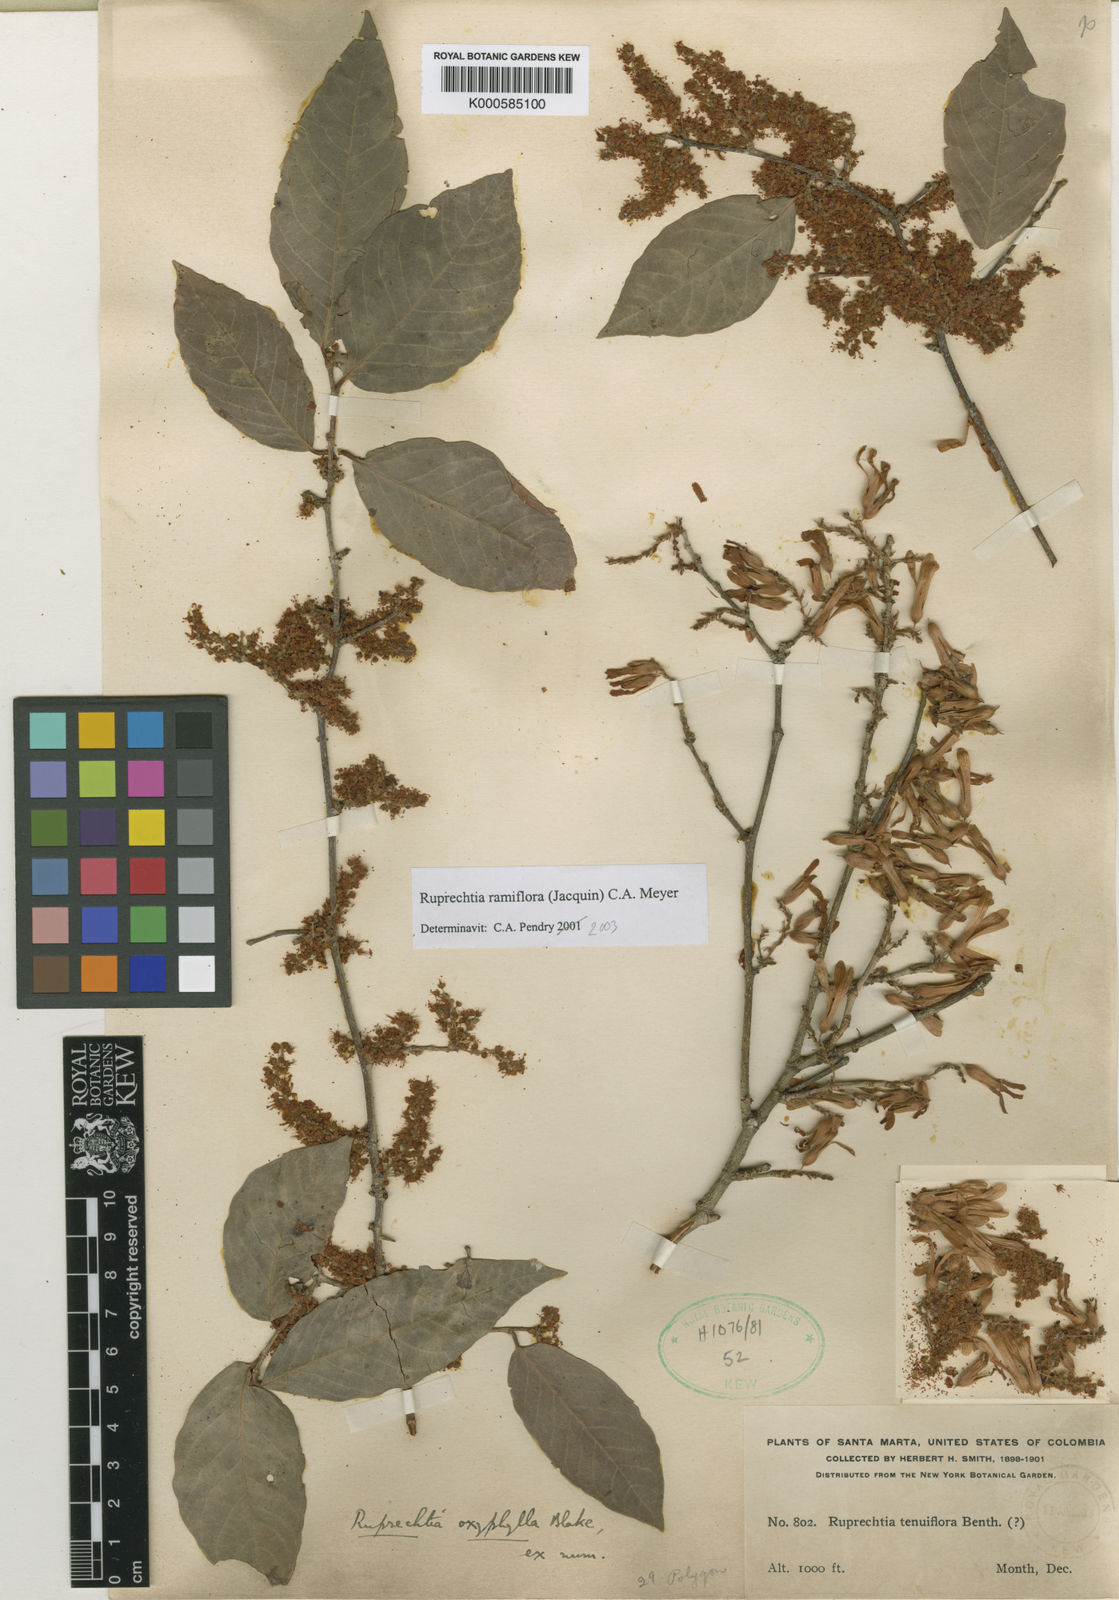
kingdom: Plantae
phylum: Tracheophyta
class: Magnoliopsida
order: Caryophyllales
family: Polygonaceae
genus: Ruprechtia
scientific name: Ruprechtia ramiflora
